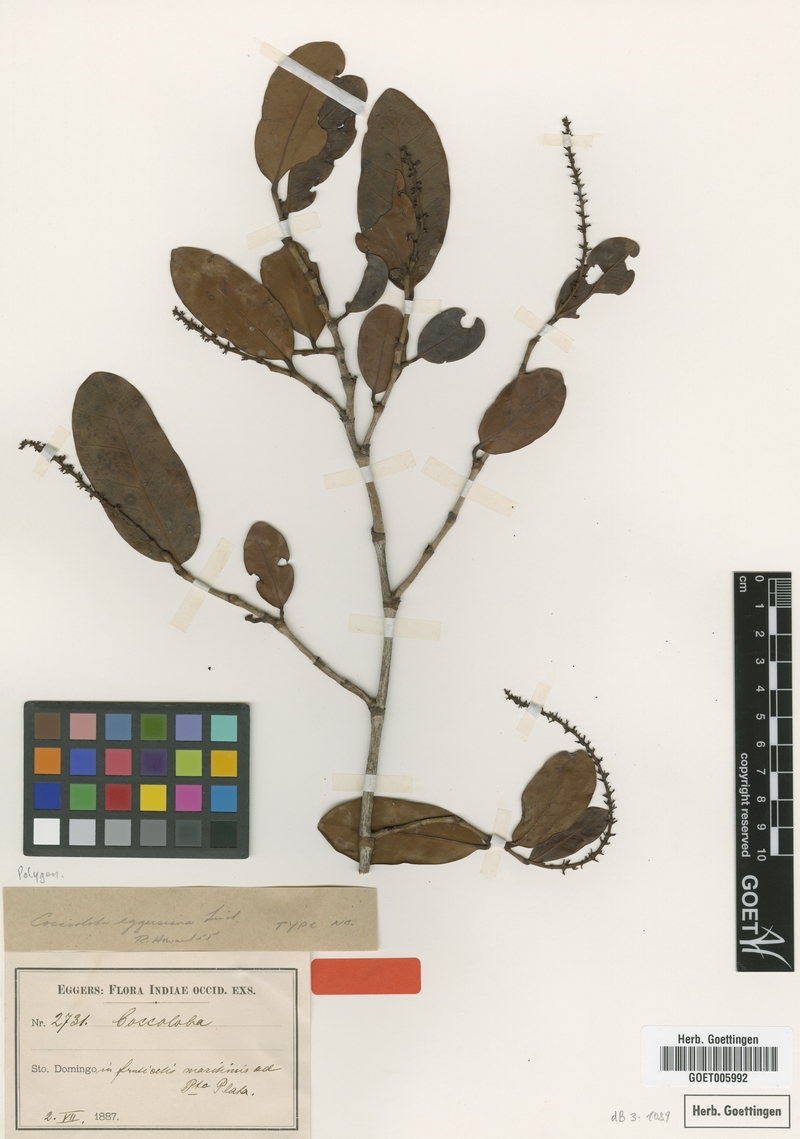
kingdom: Plantae
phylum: Tracheophyta
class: Magnoliopsida
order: Caryophyllales
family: Polygonaceae
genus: Coccoloba
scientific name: Coccoloba costata
